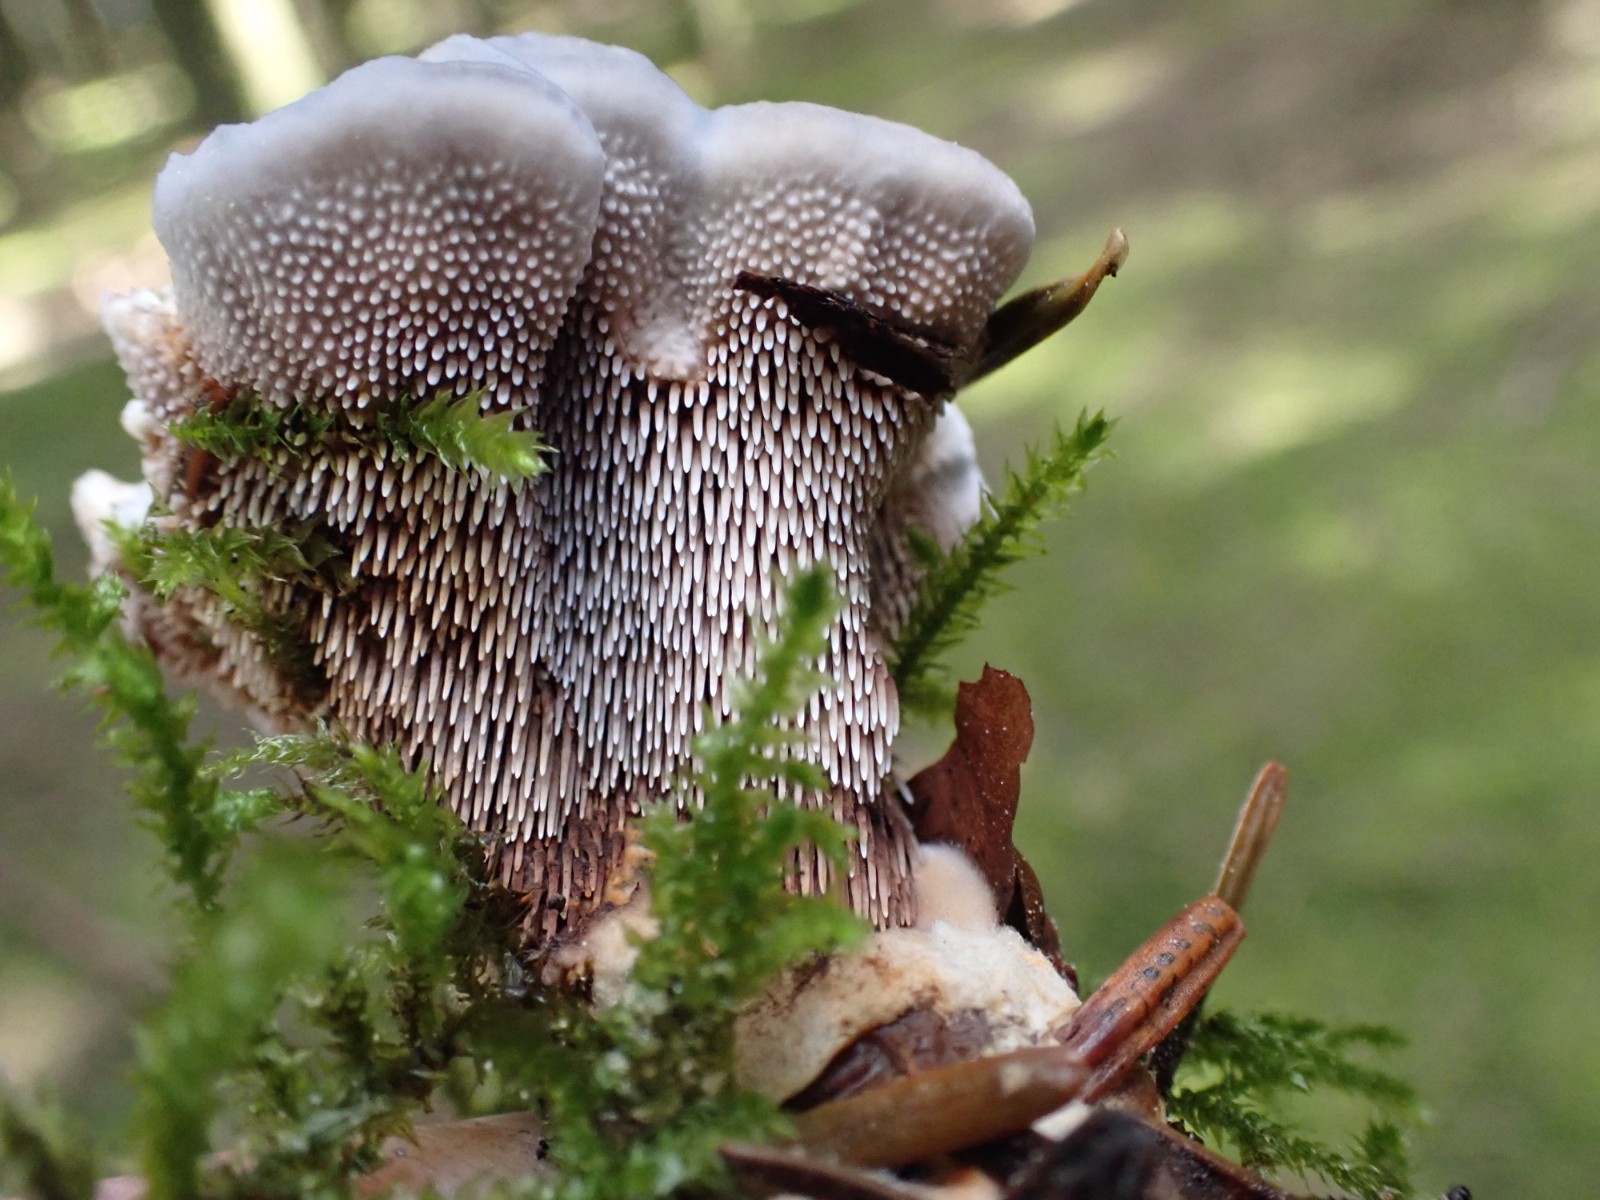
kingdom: Fungi
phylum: Basidiomycota
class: Agaricomycetes
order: Thelephorales
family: Bankeraceae
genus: Hydnellum
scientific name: Hydnellum caeruleum
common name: blålig korkpigsvamp
